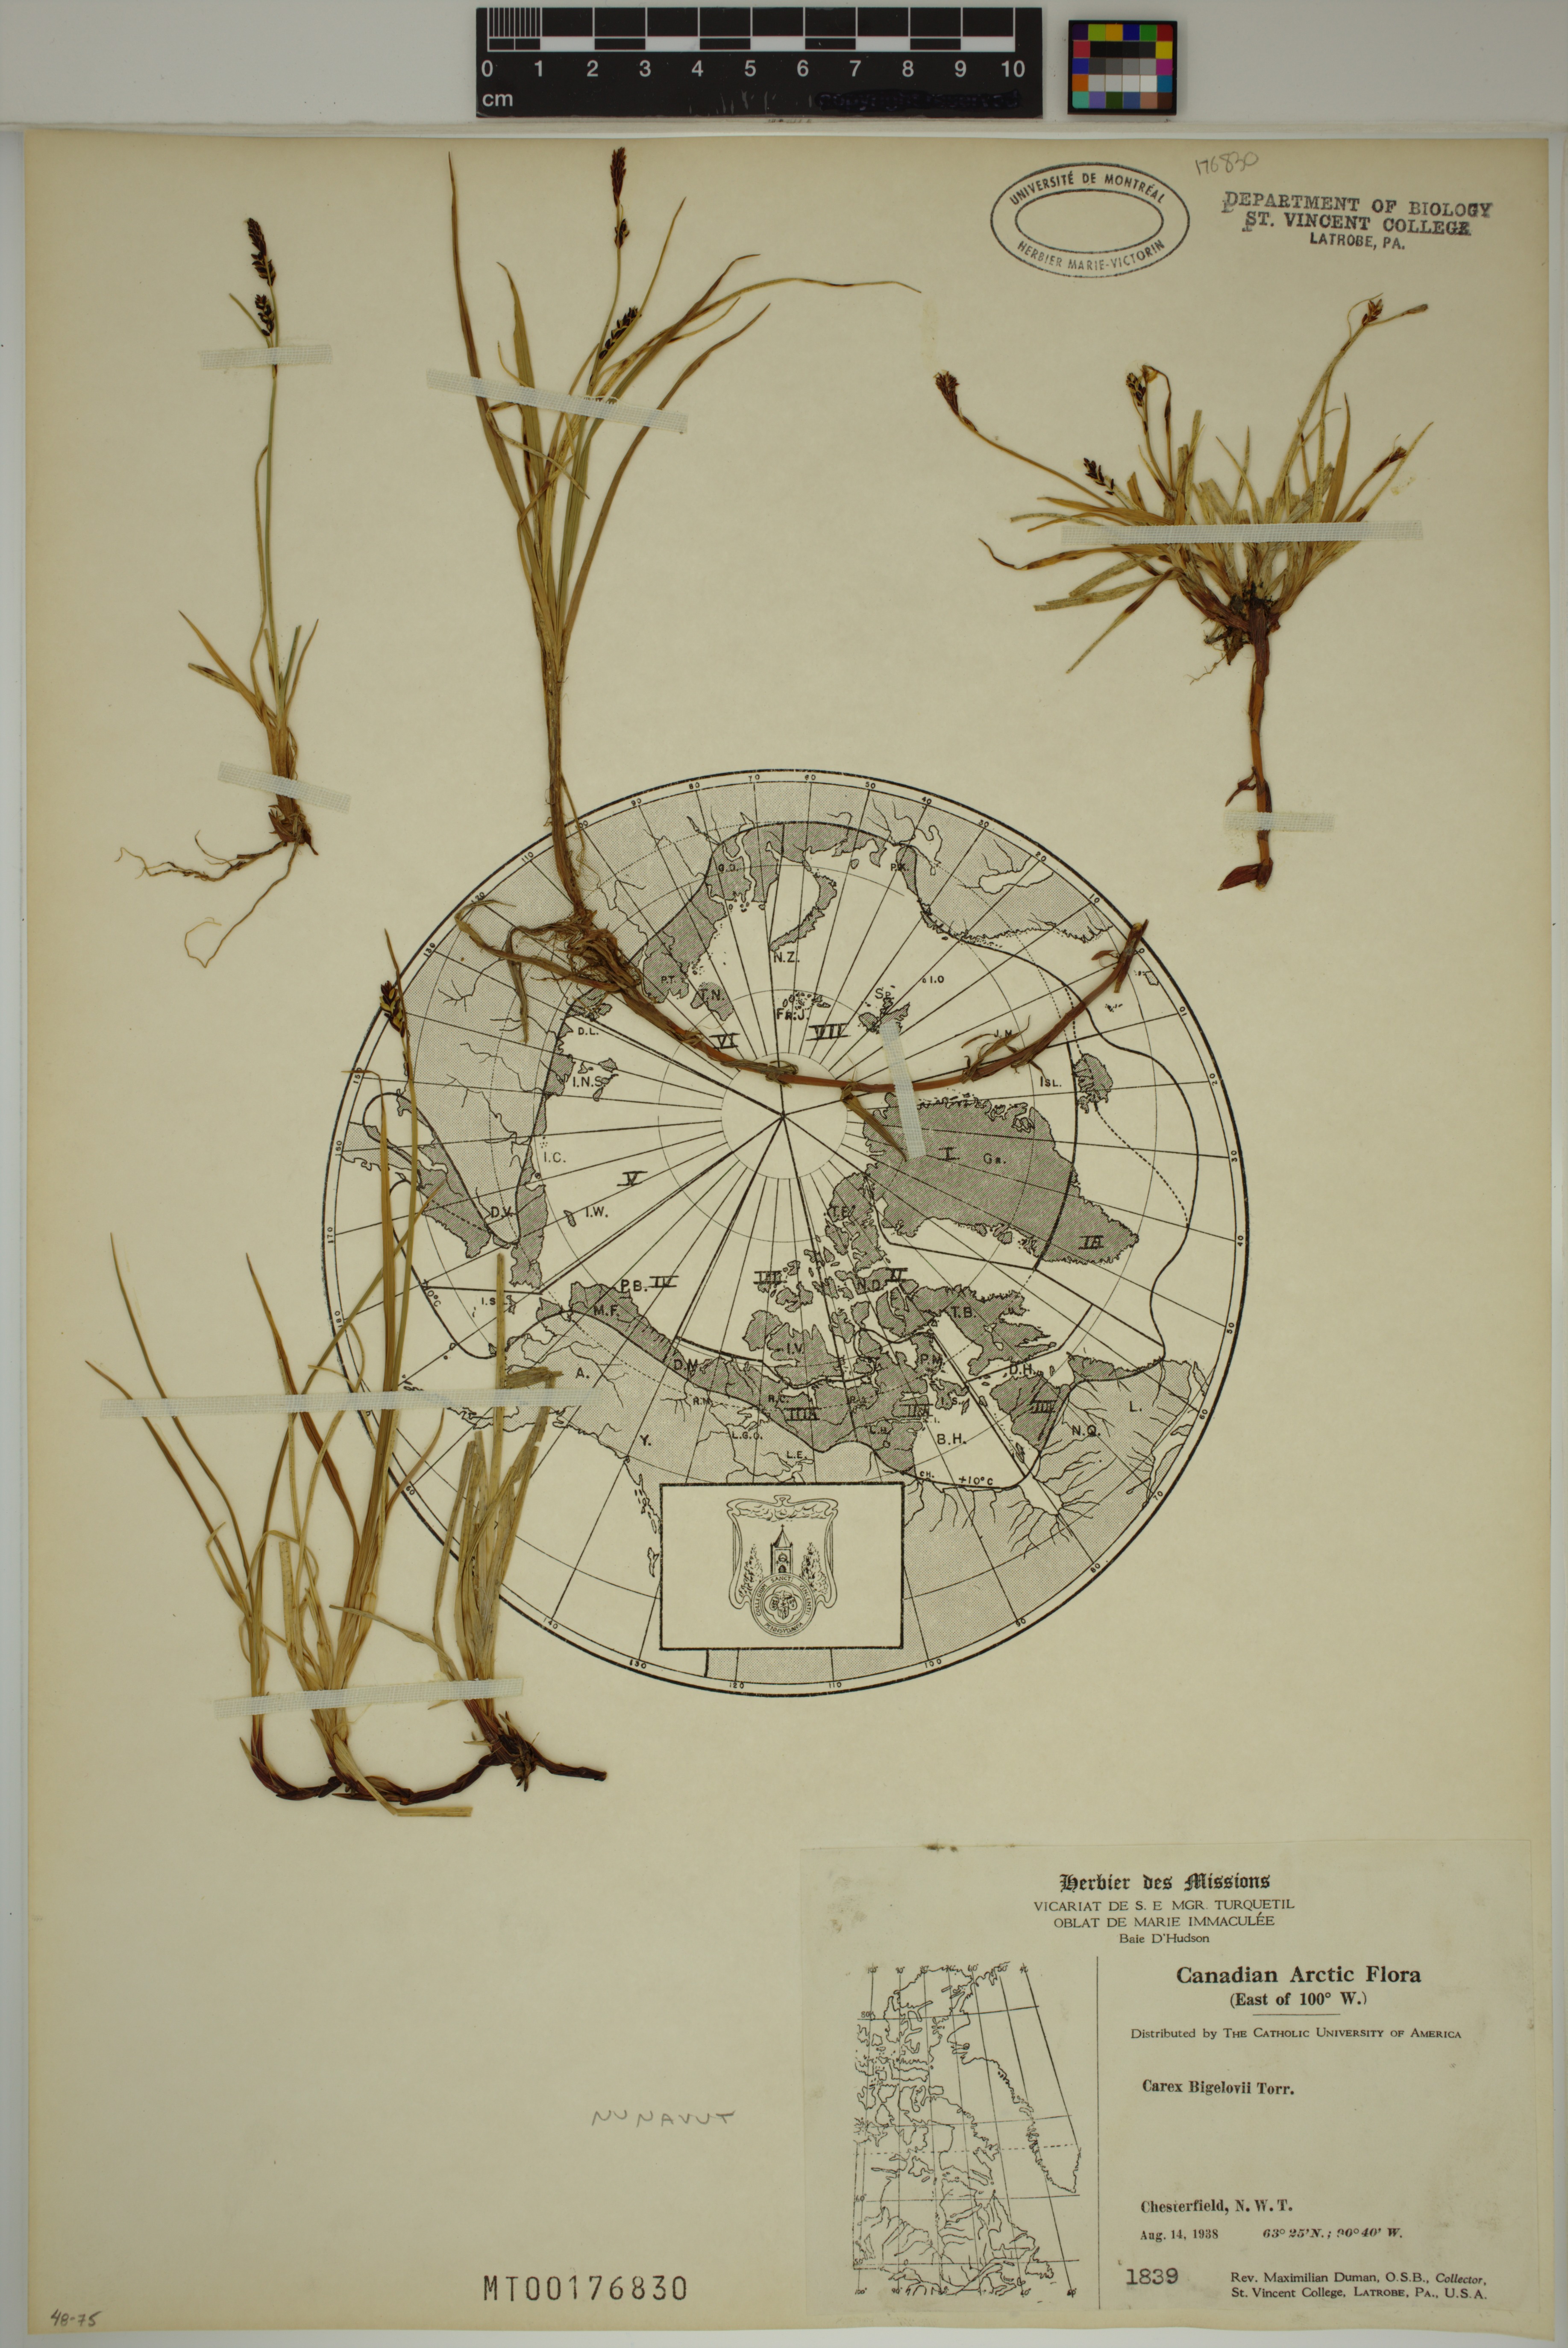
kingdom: Plantae
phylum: Tracheophyta
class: Liliopsida
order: Poales
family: Cyperaceae
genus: Carex
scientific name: Carex bigelowii
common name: Stiff sedge
